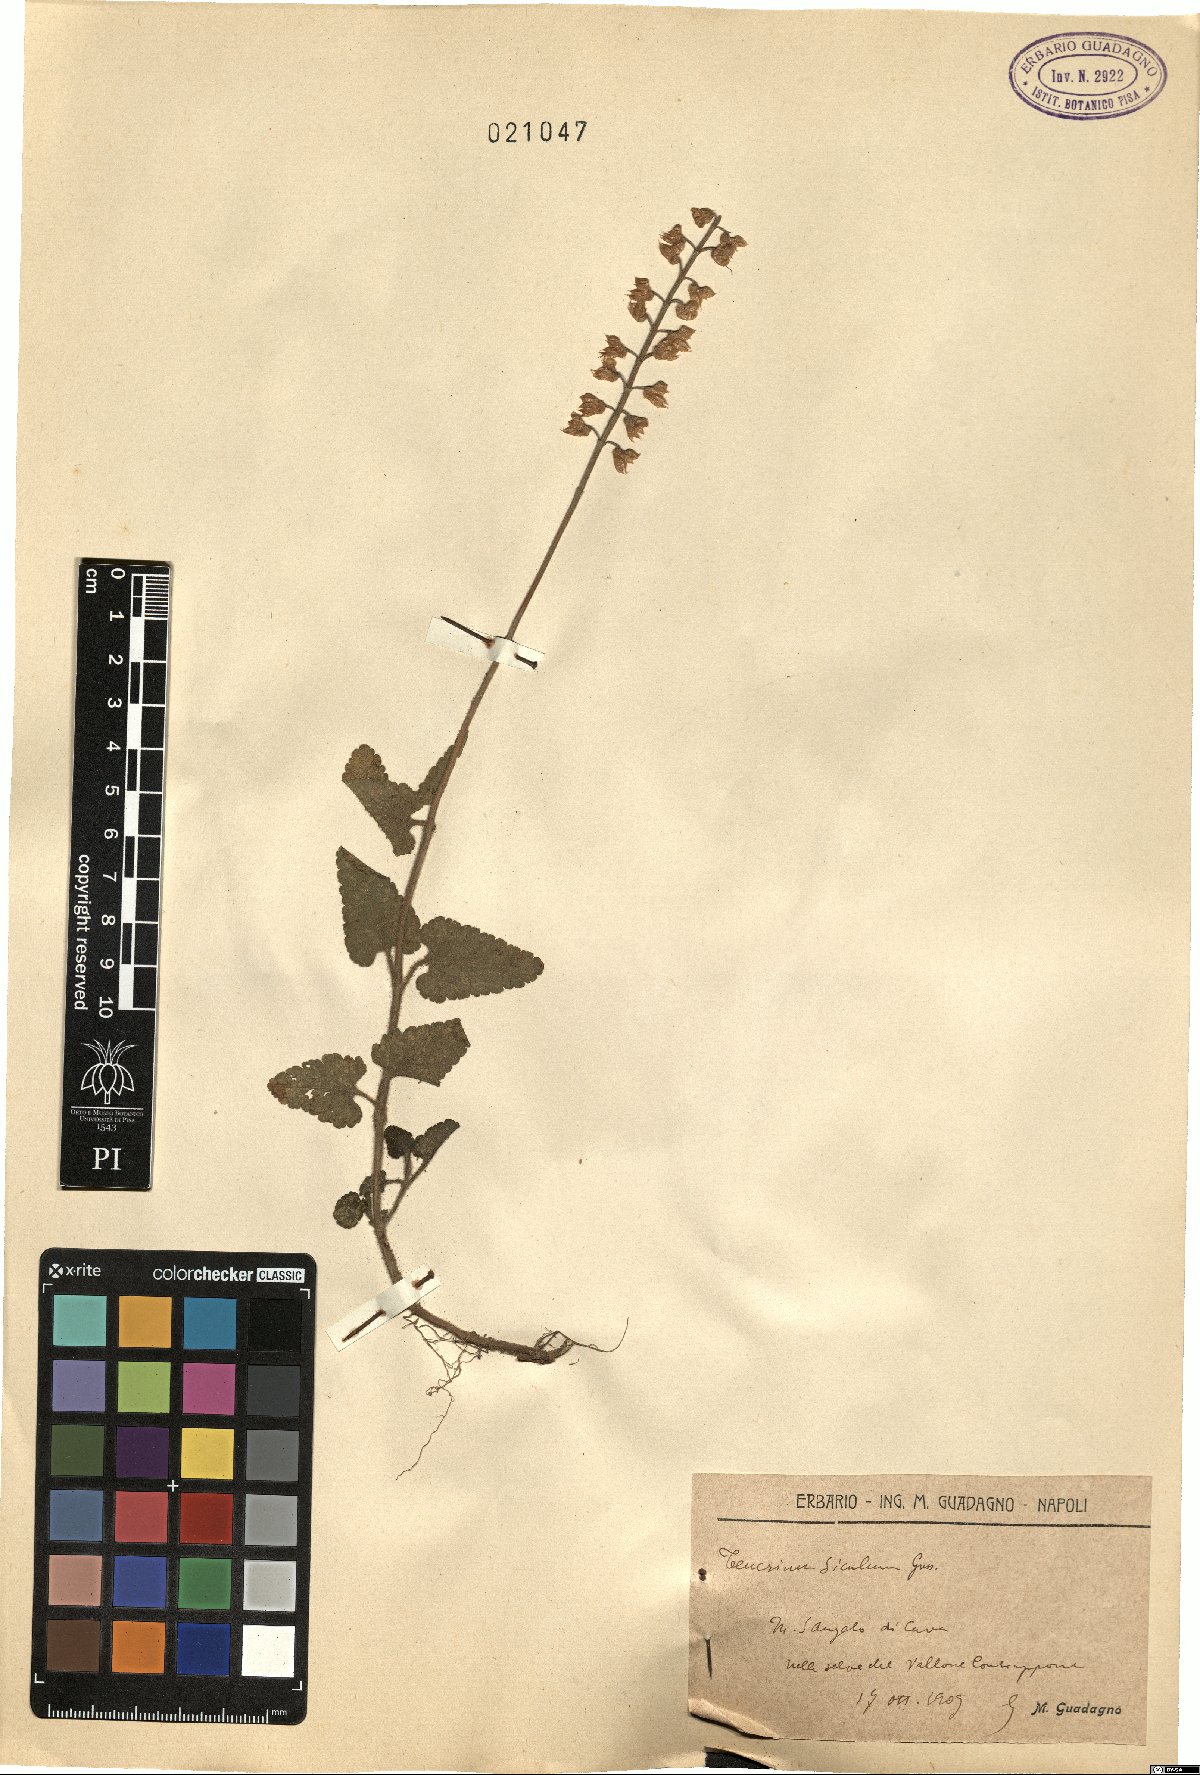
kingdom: Plantae
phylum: Tracheophyta
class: Magnoliopsida
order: Lamiales
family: Lamiaceae
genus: Teucrium
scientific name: Teucrium siculum
